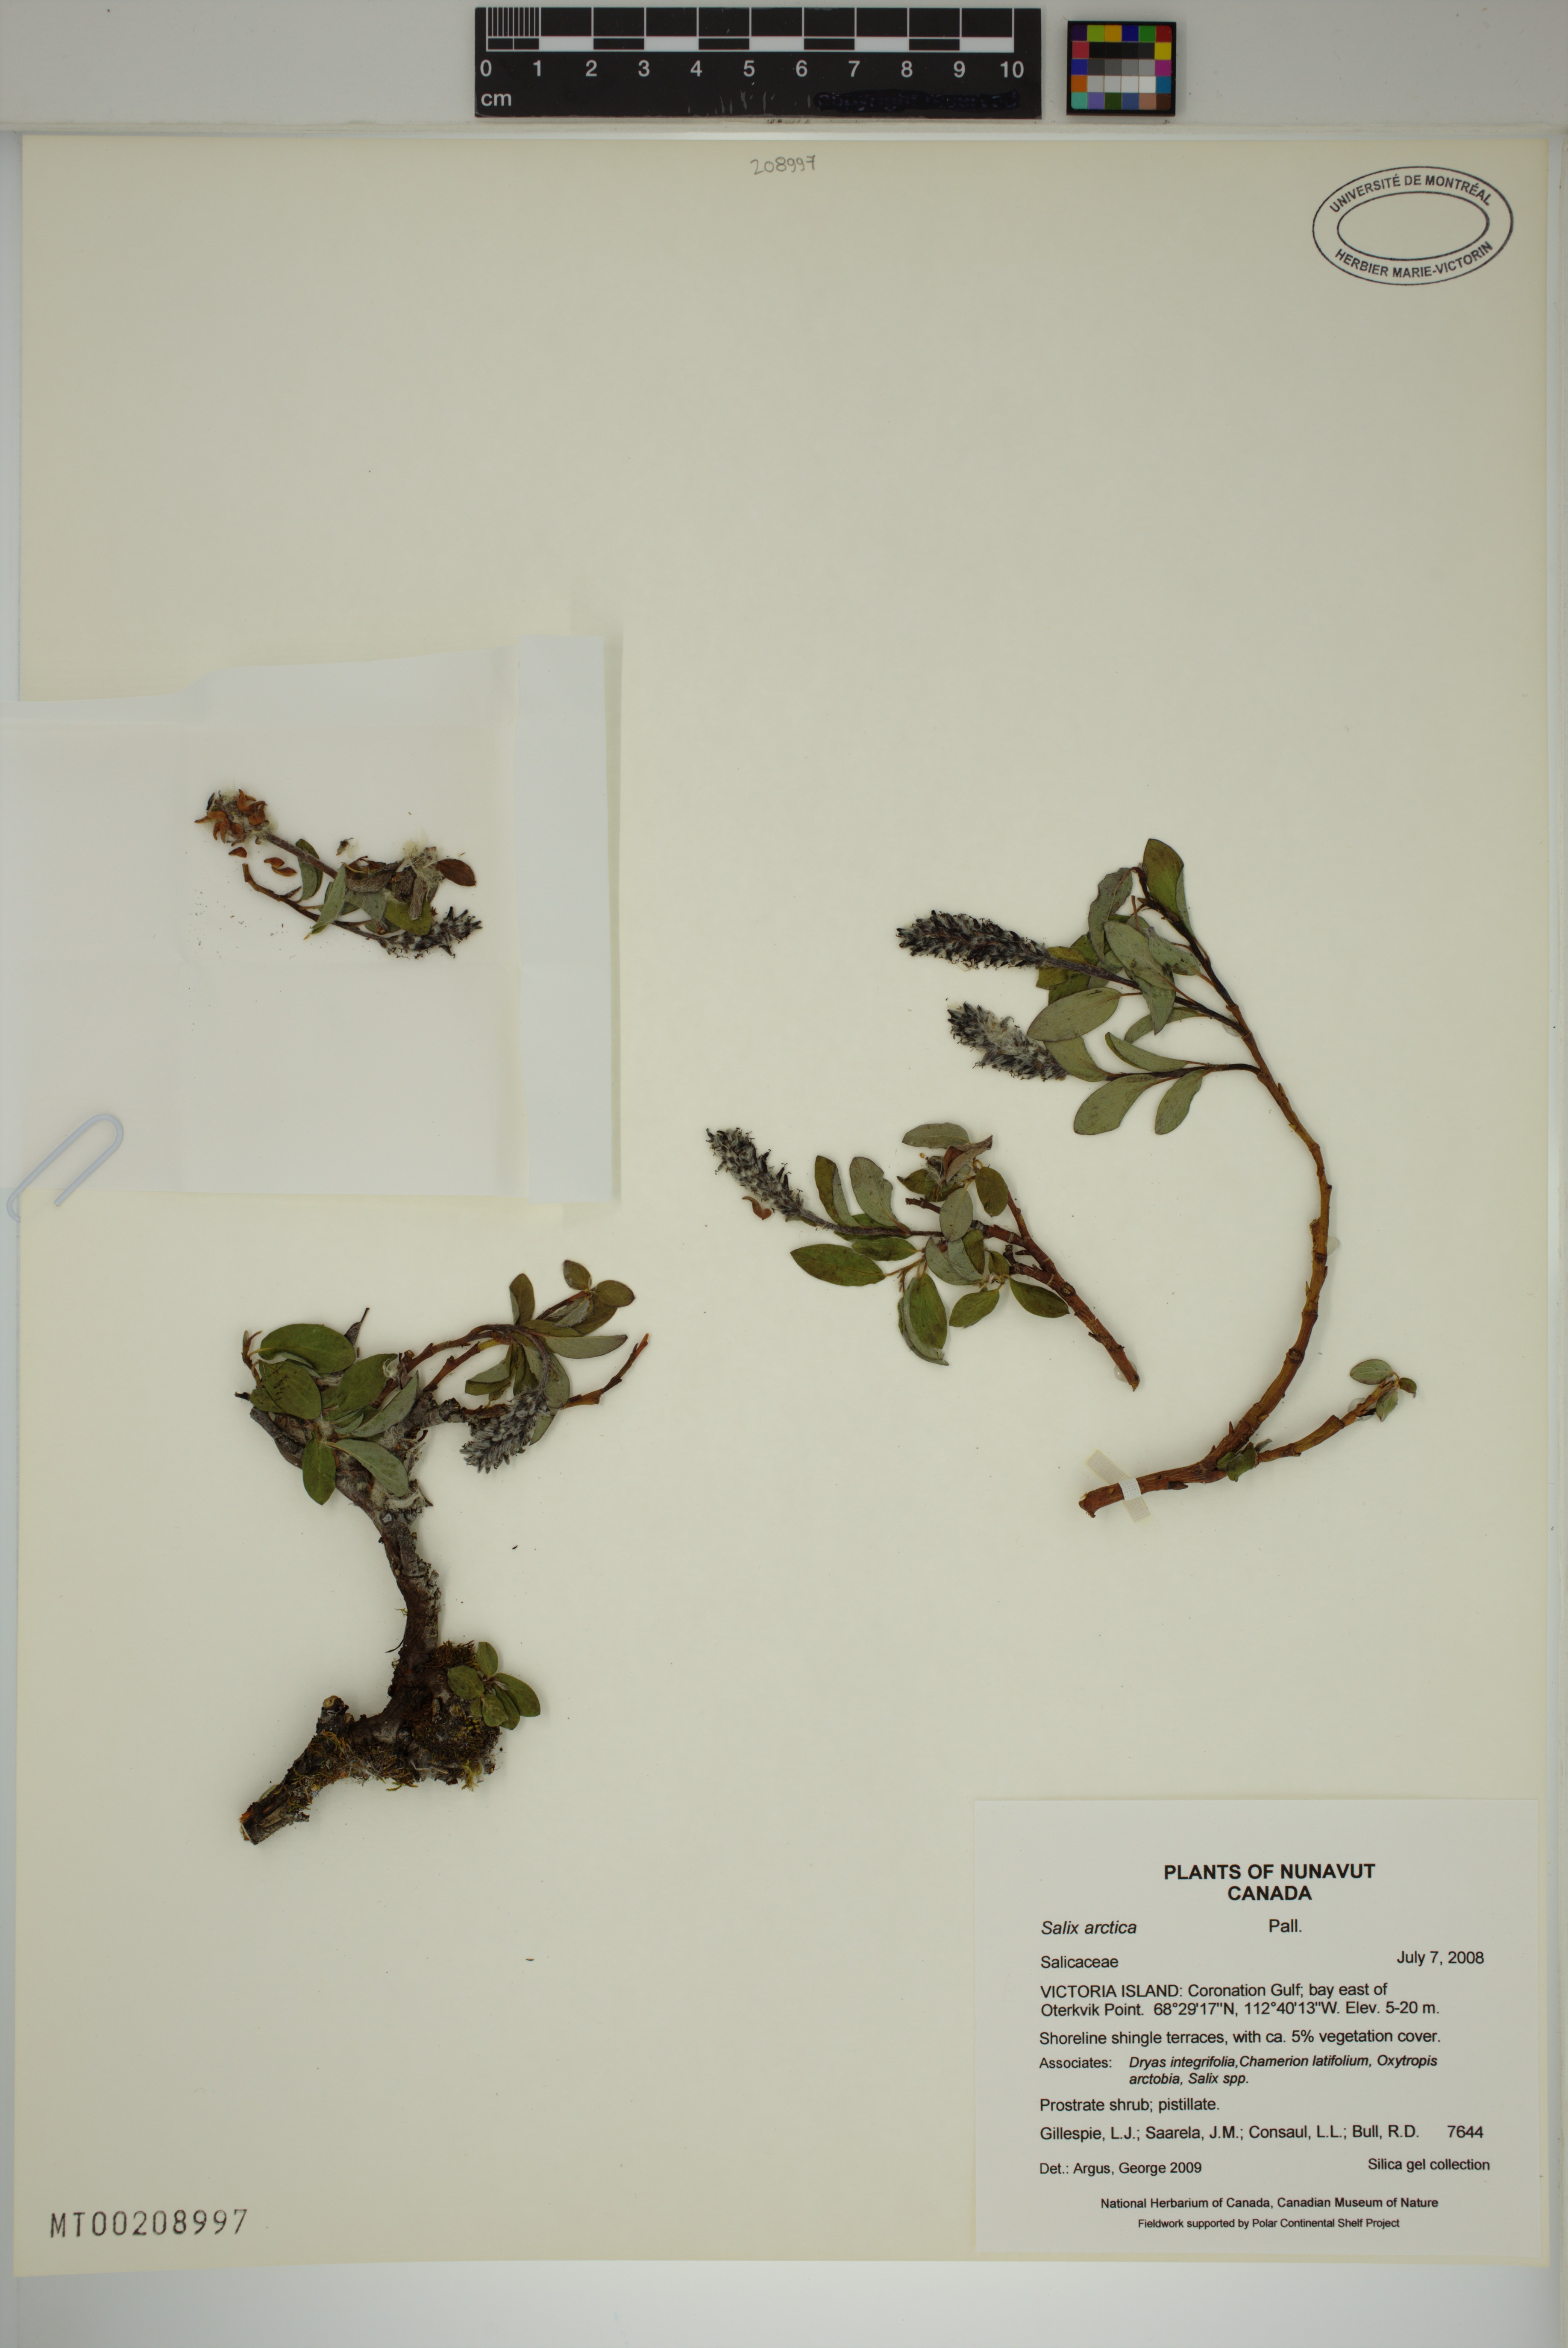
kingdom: Plantae
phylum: Tracheophyta
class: Magnoliopsida
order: Malpighiales
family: Salicaceae
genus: Salix
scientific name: Salix arctica
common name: Arctic willow
